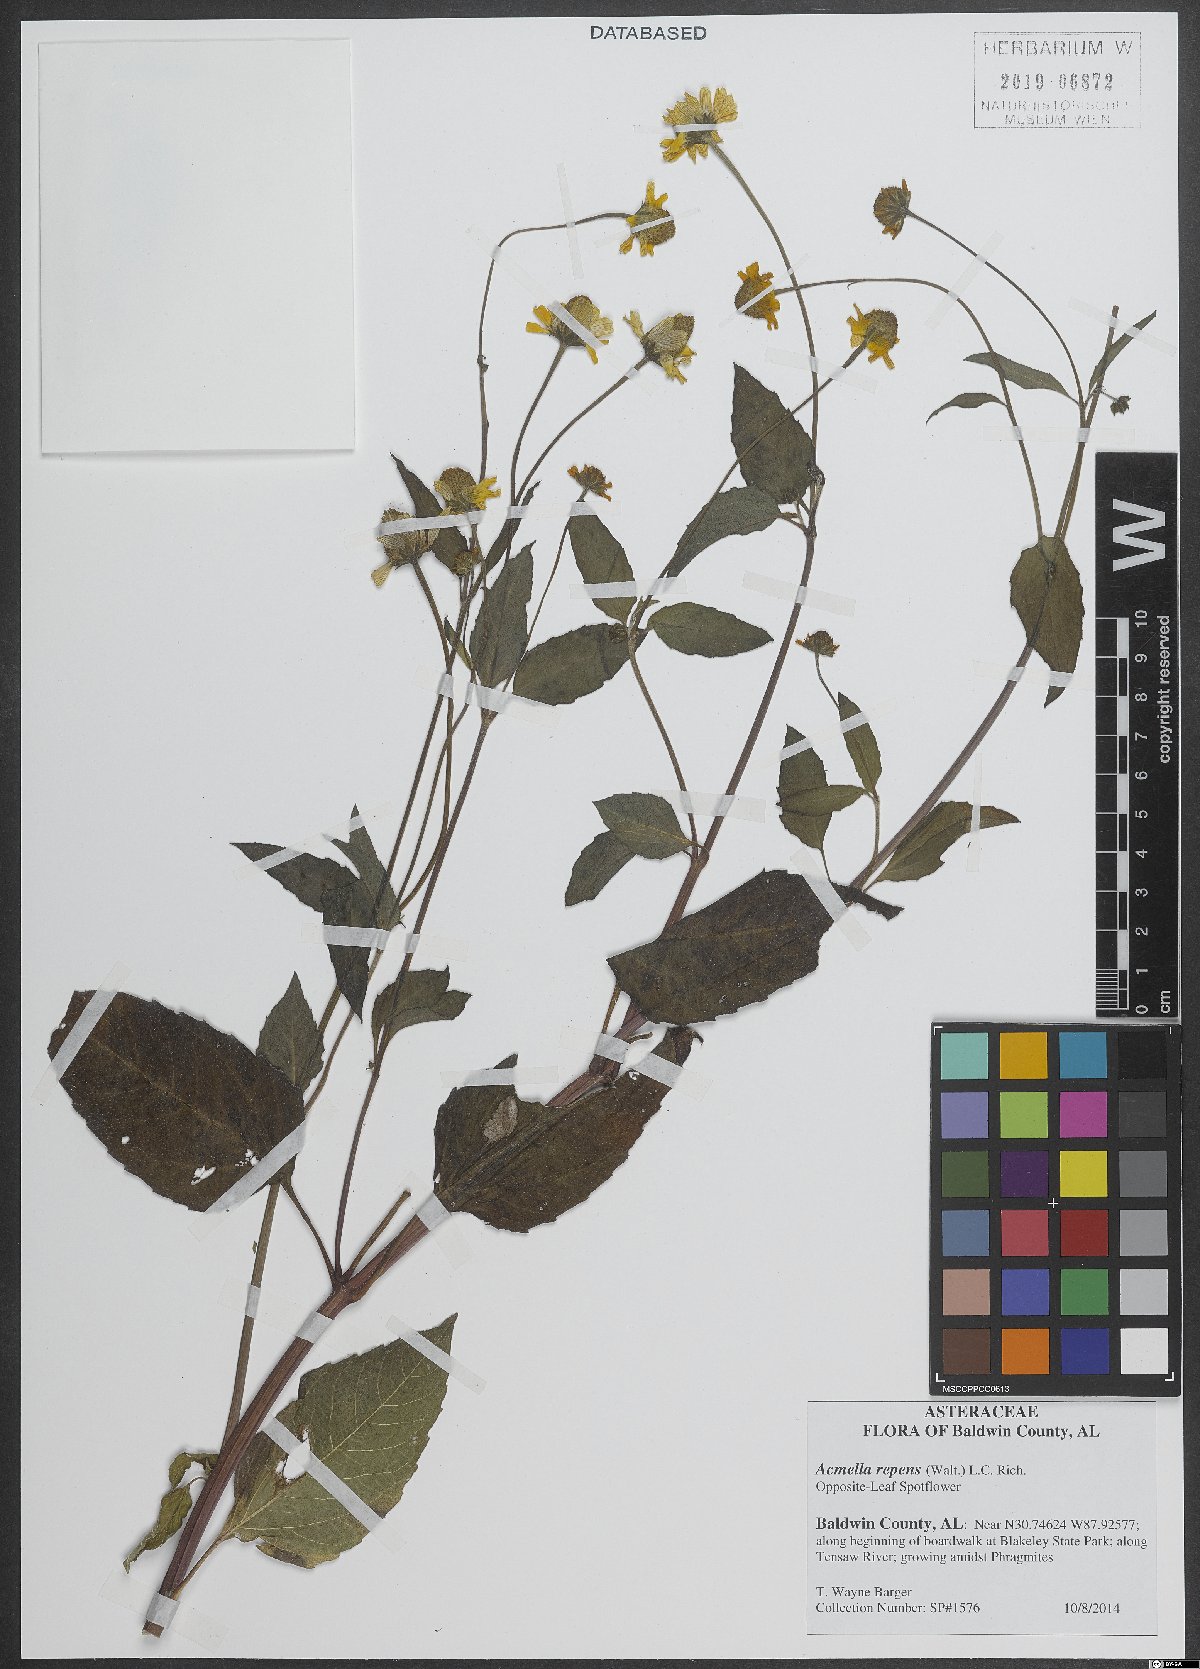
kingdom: Plantae
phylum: Tracheophyta
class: Magnoliopsida
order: Asterales
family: Asteraceae
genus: Acmella
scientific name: Acmella repens
